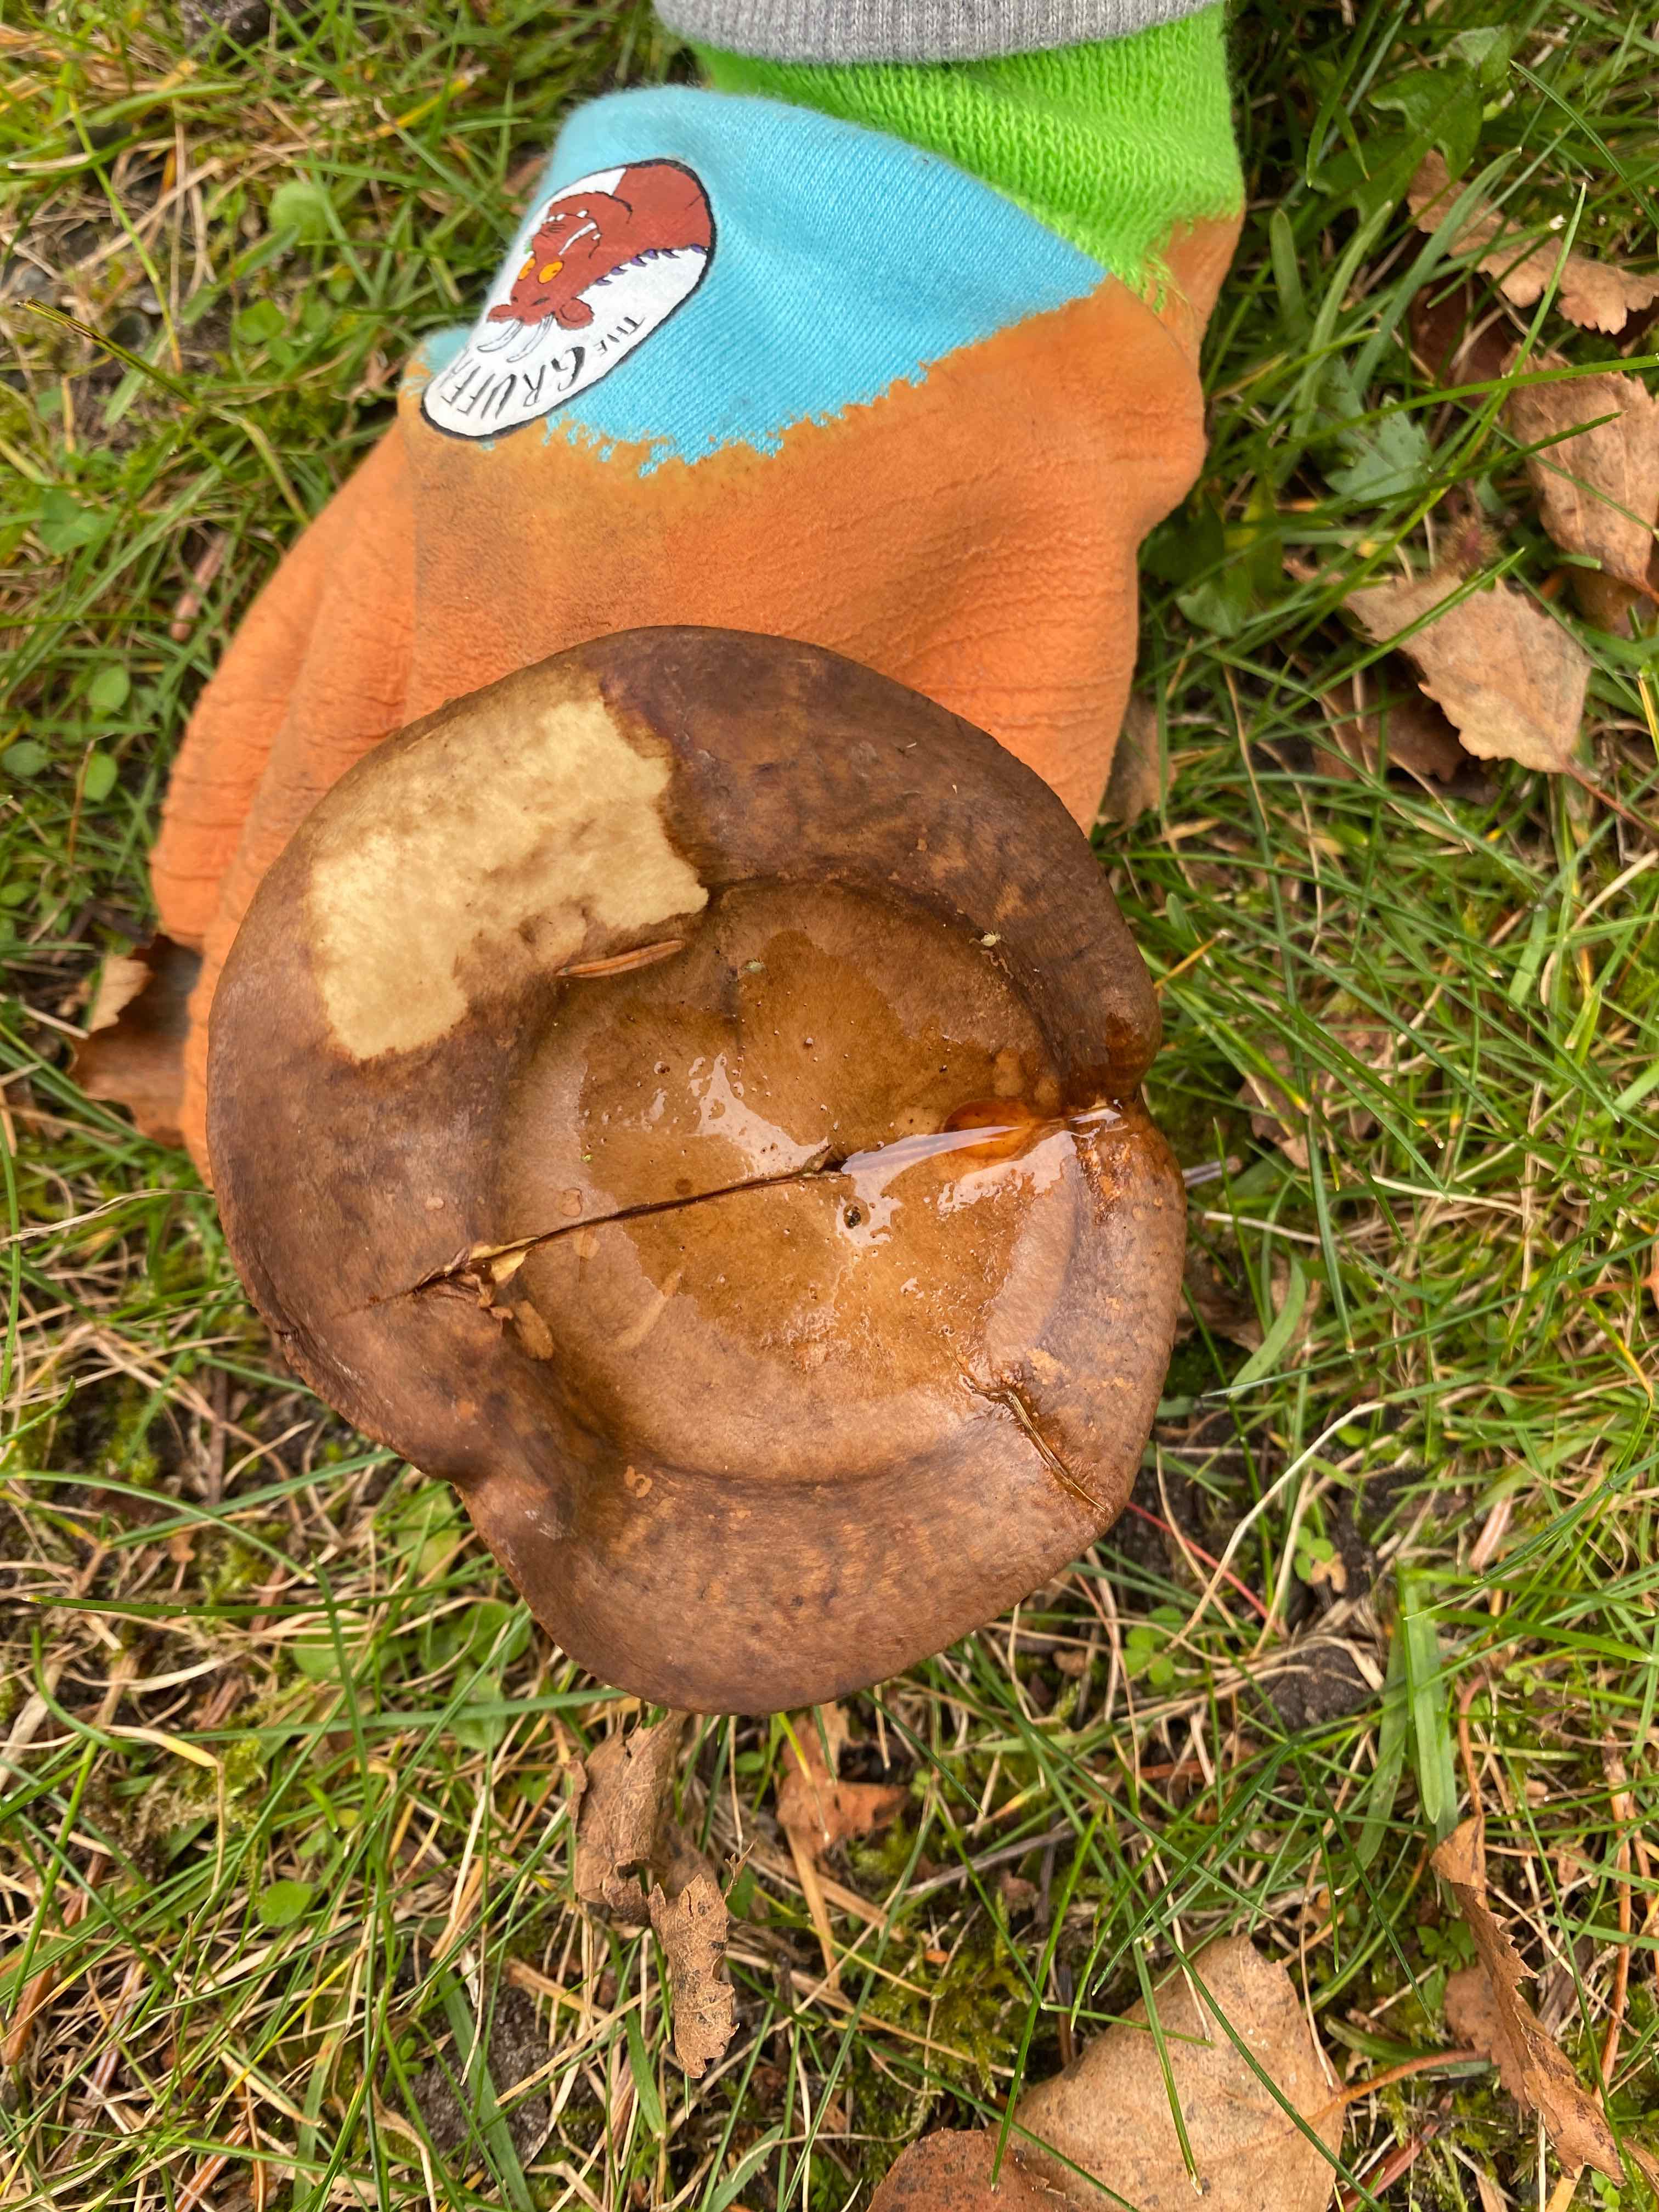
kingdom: Fungi
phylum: Basidiomycota
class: Agaricomycetes
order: Boletales
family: Paxillaceae
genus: Paxillus
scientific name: Paxillus
